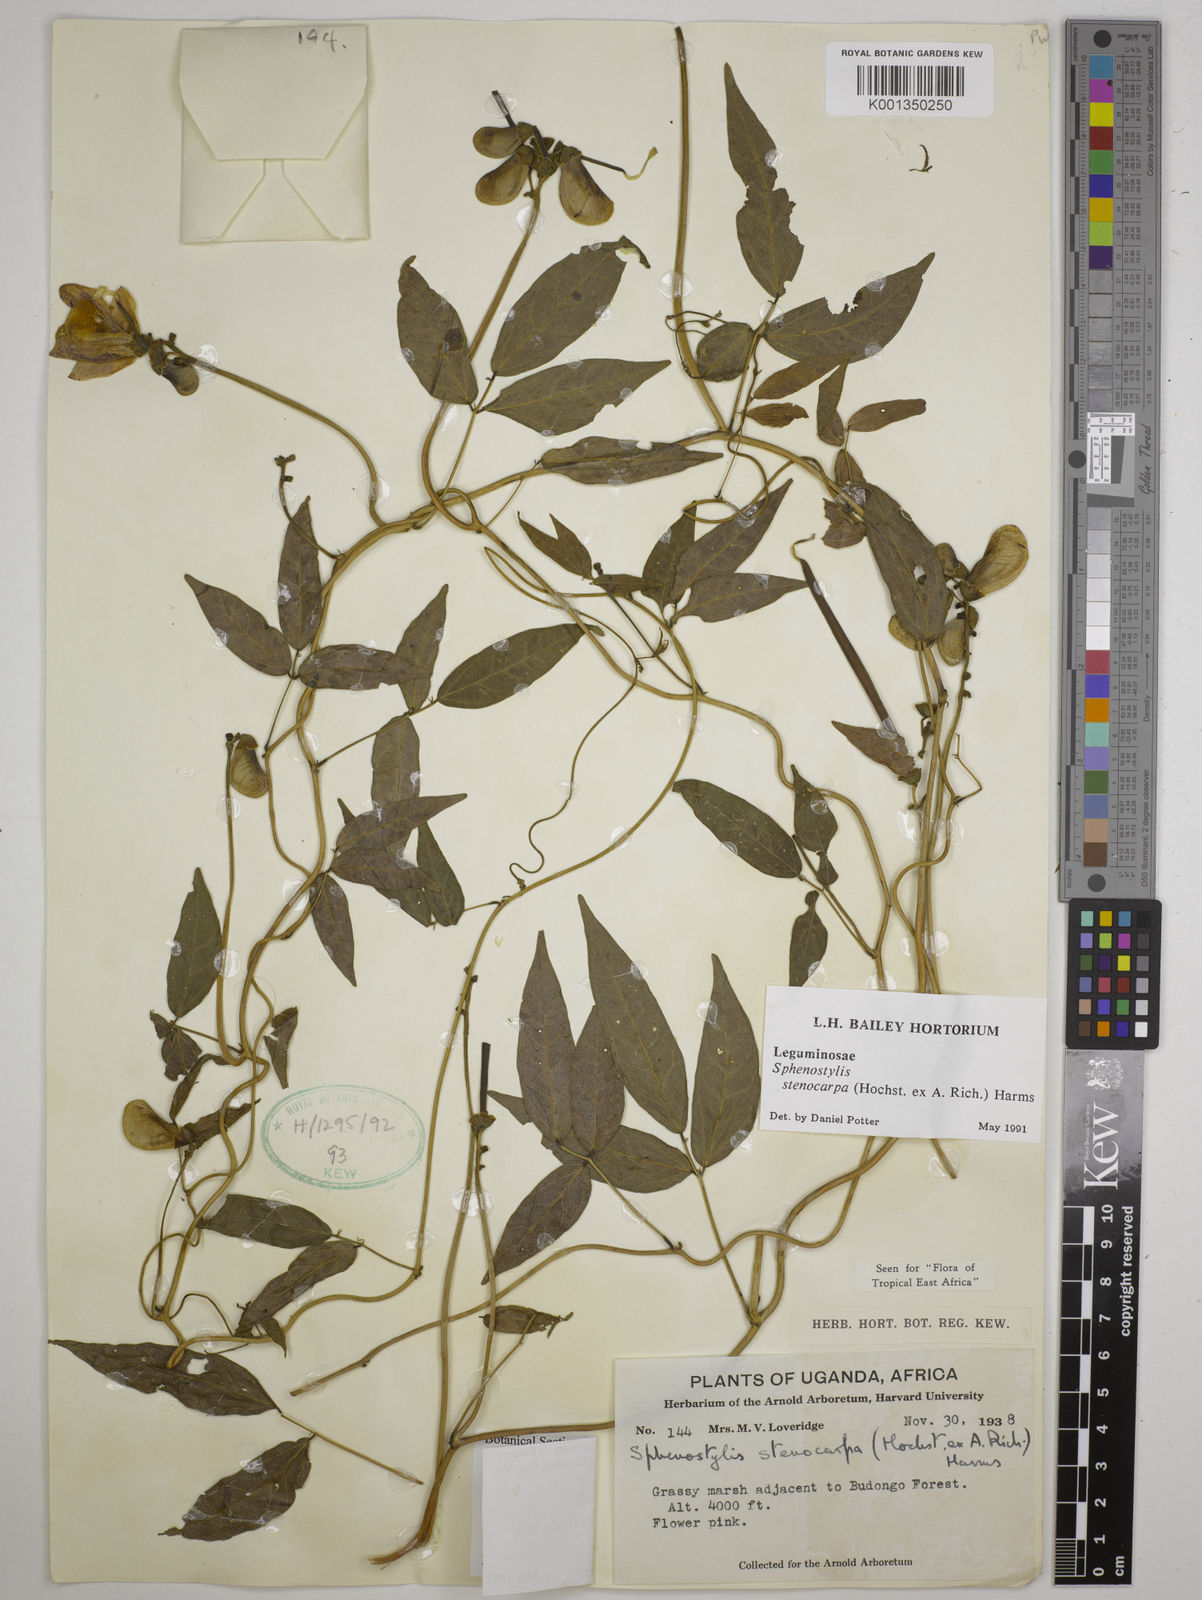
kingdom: Plantae
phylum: Tracheophyta
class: Magnoliopsida
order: Fabales
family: Fabaceae
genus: Sphenostylis
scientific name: Sphenostylis stenocarpa
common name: Yam-pea
